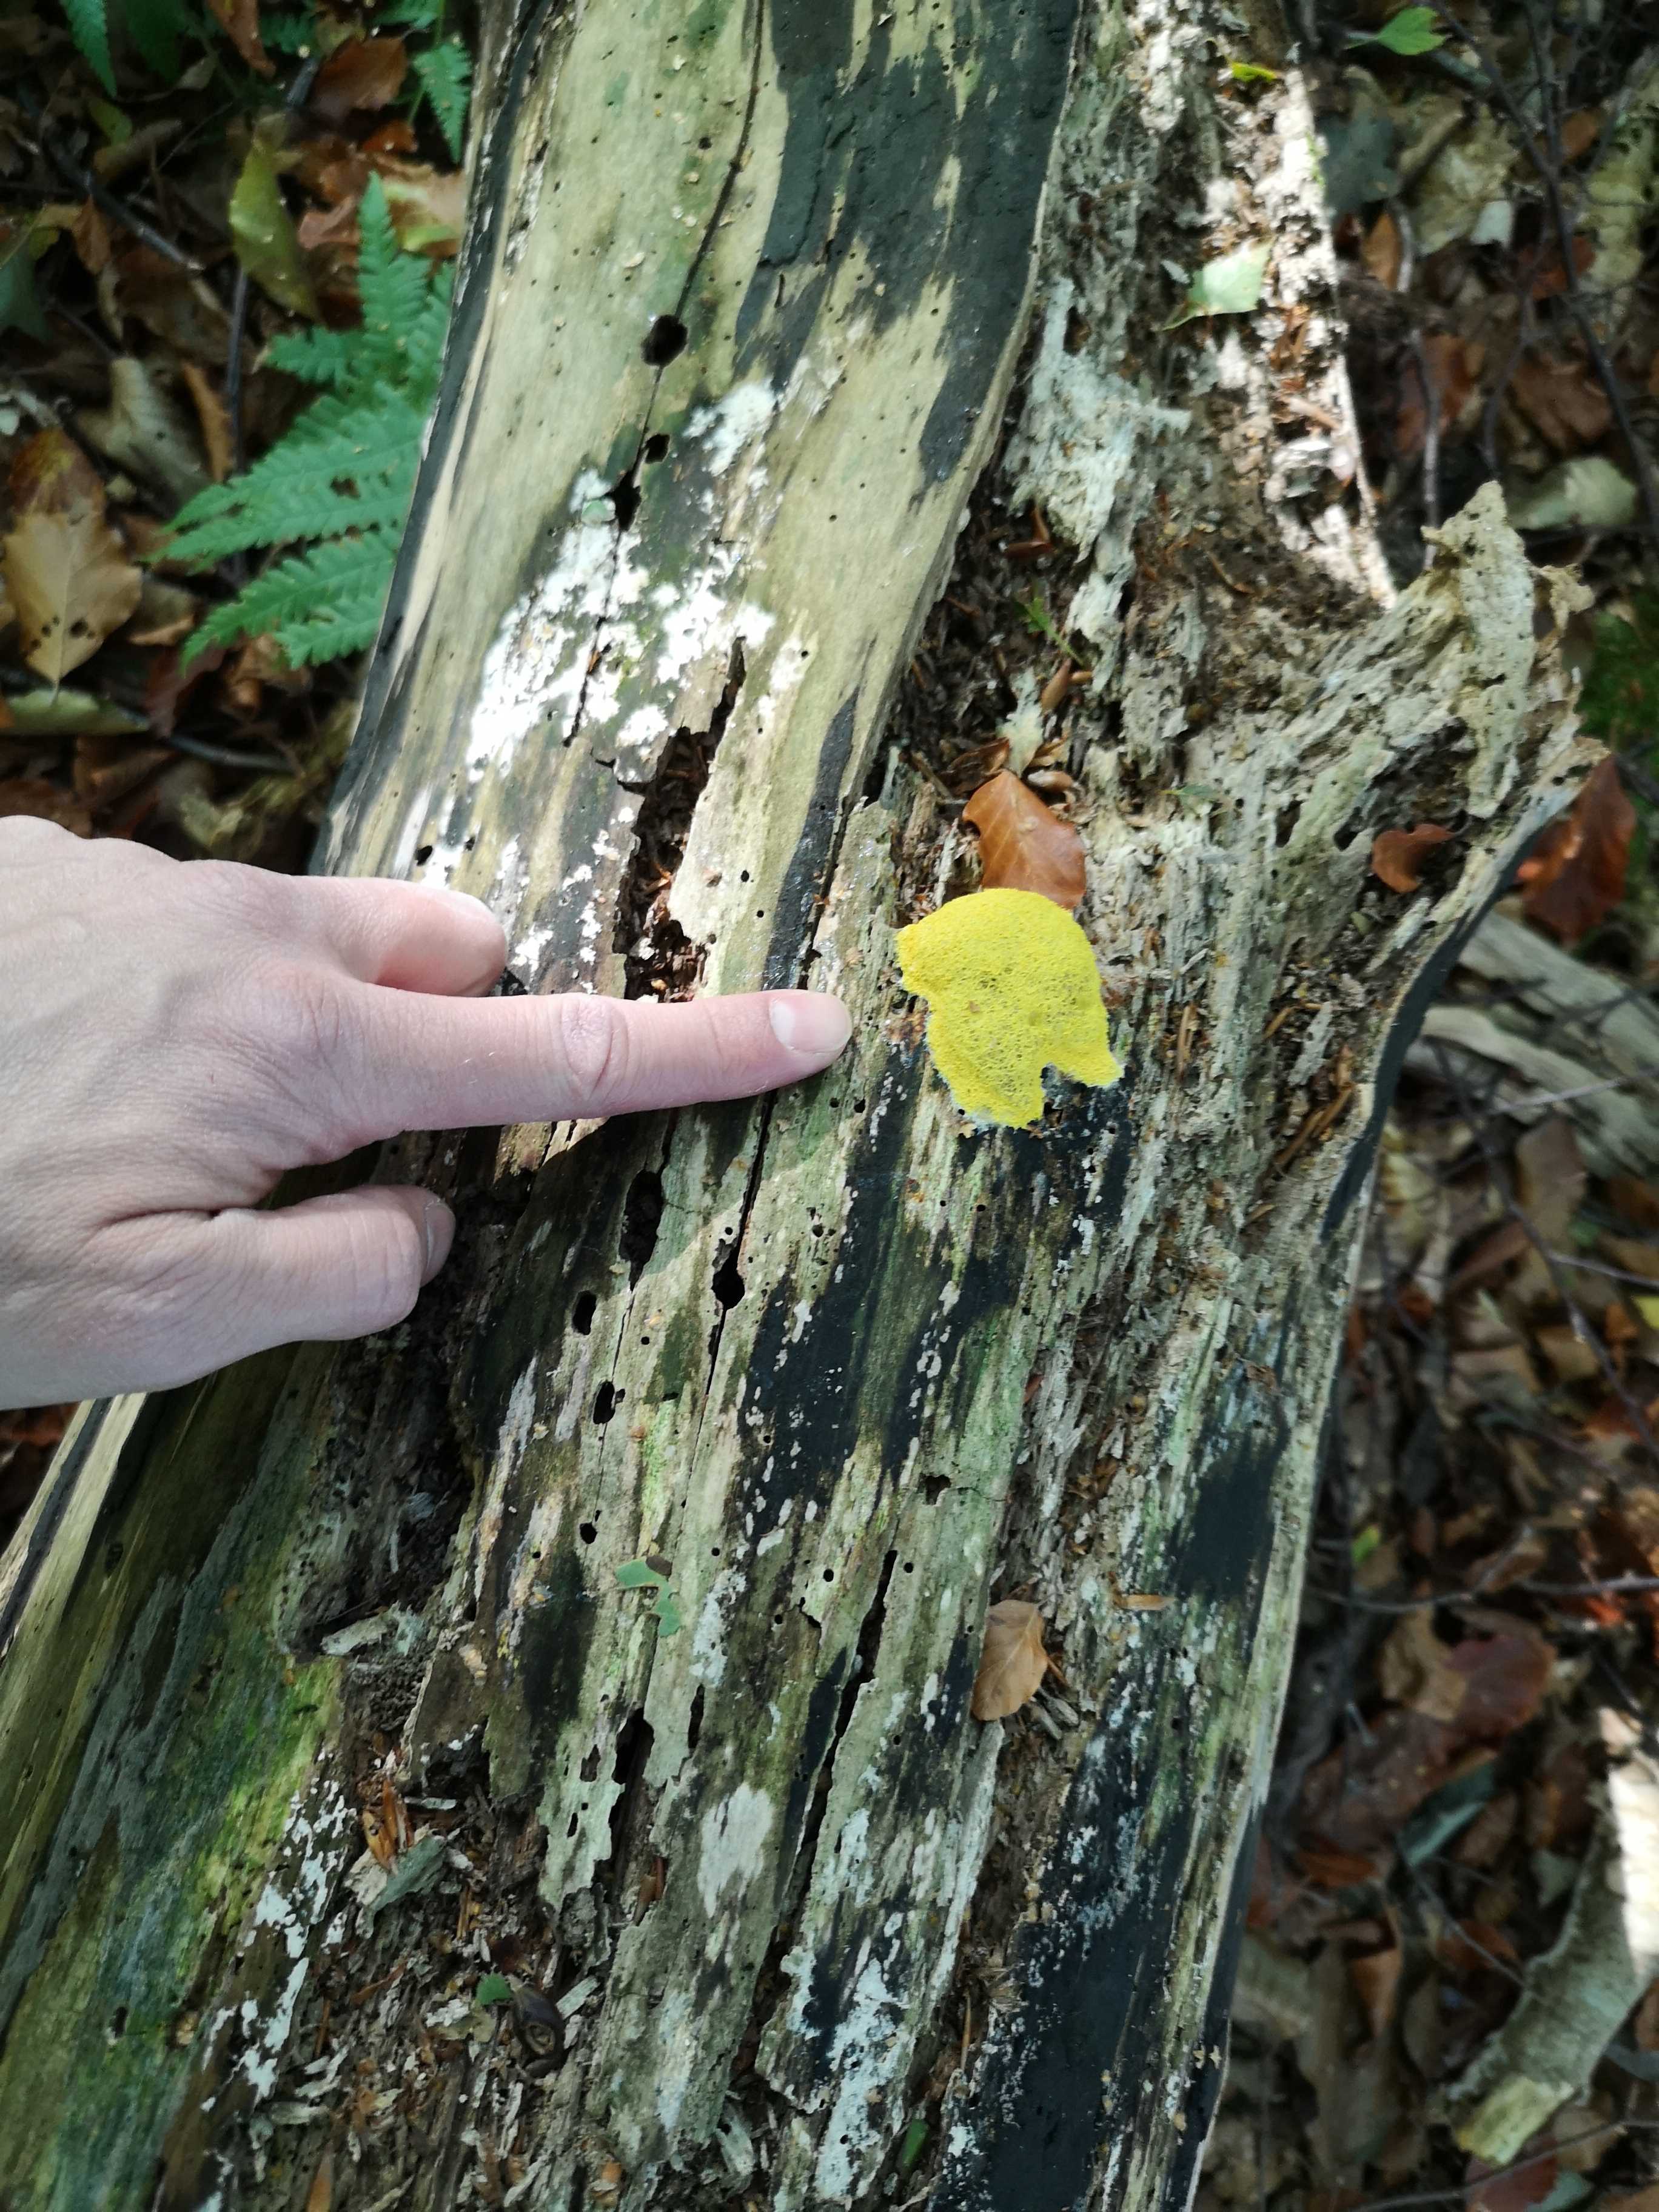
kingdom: Protozoa
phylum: Mycetozoa
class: Myxomycetes
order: Physarales
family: Physaraceae
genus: Fuligo
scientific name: Fuligo septica
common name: gul troldsmør
